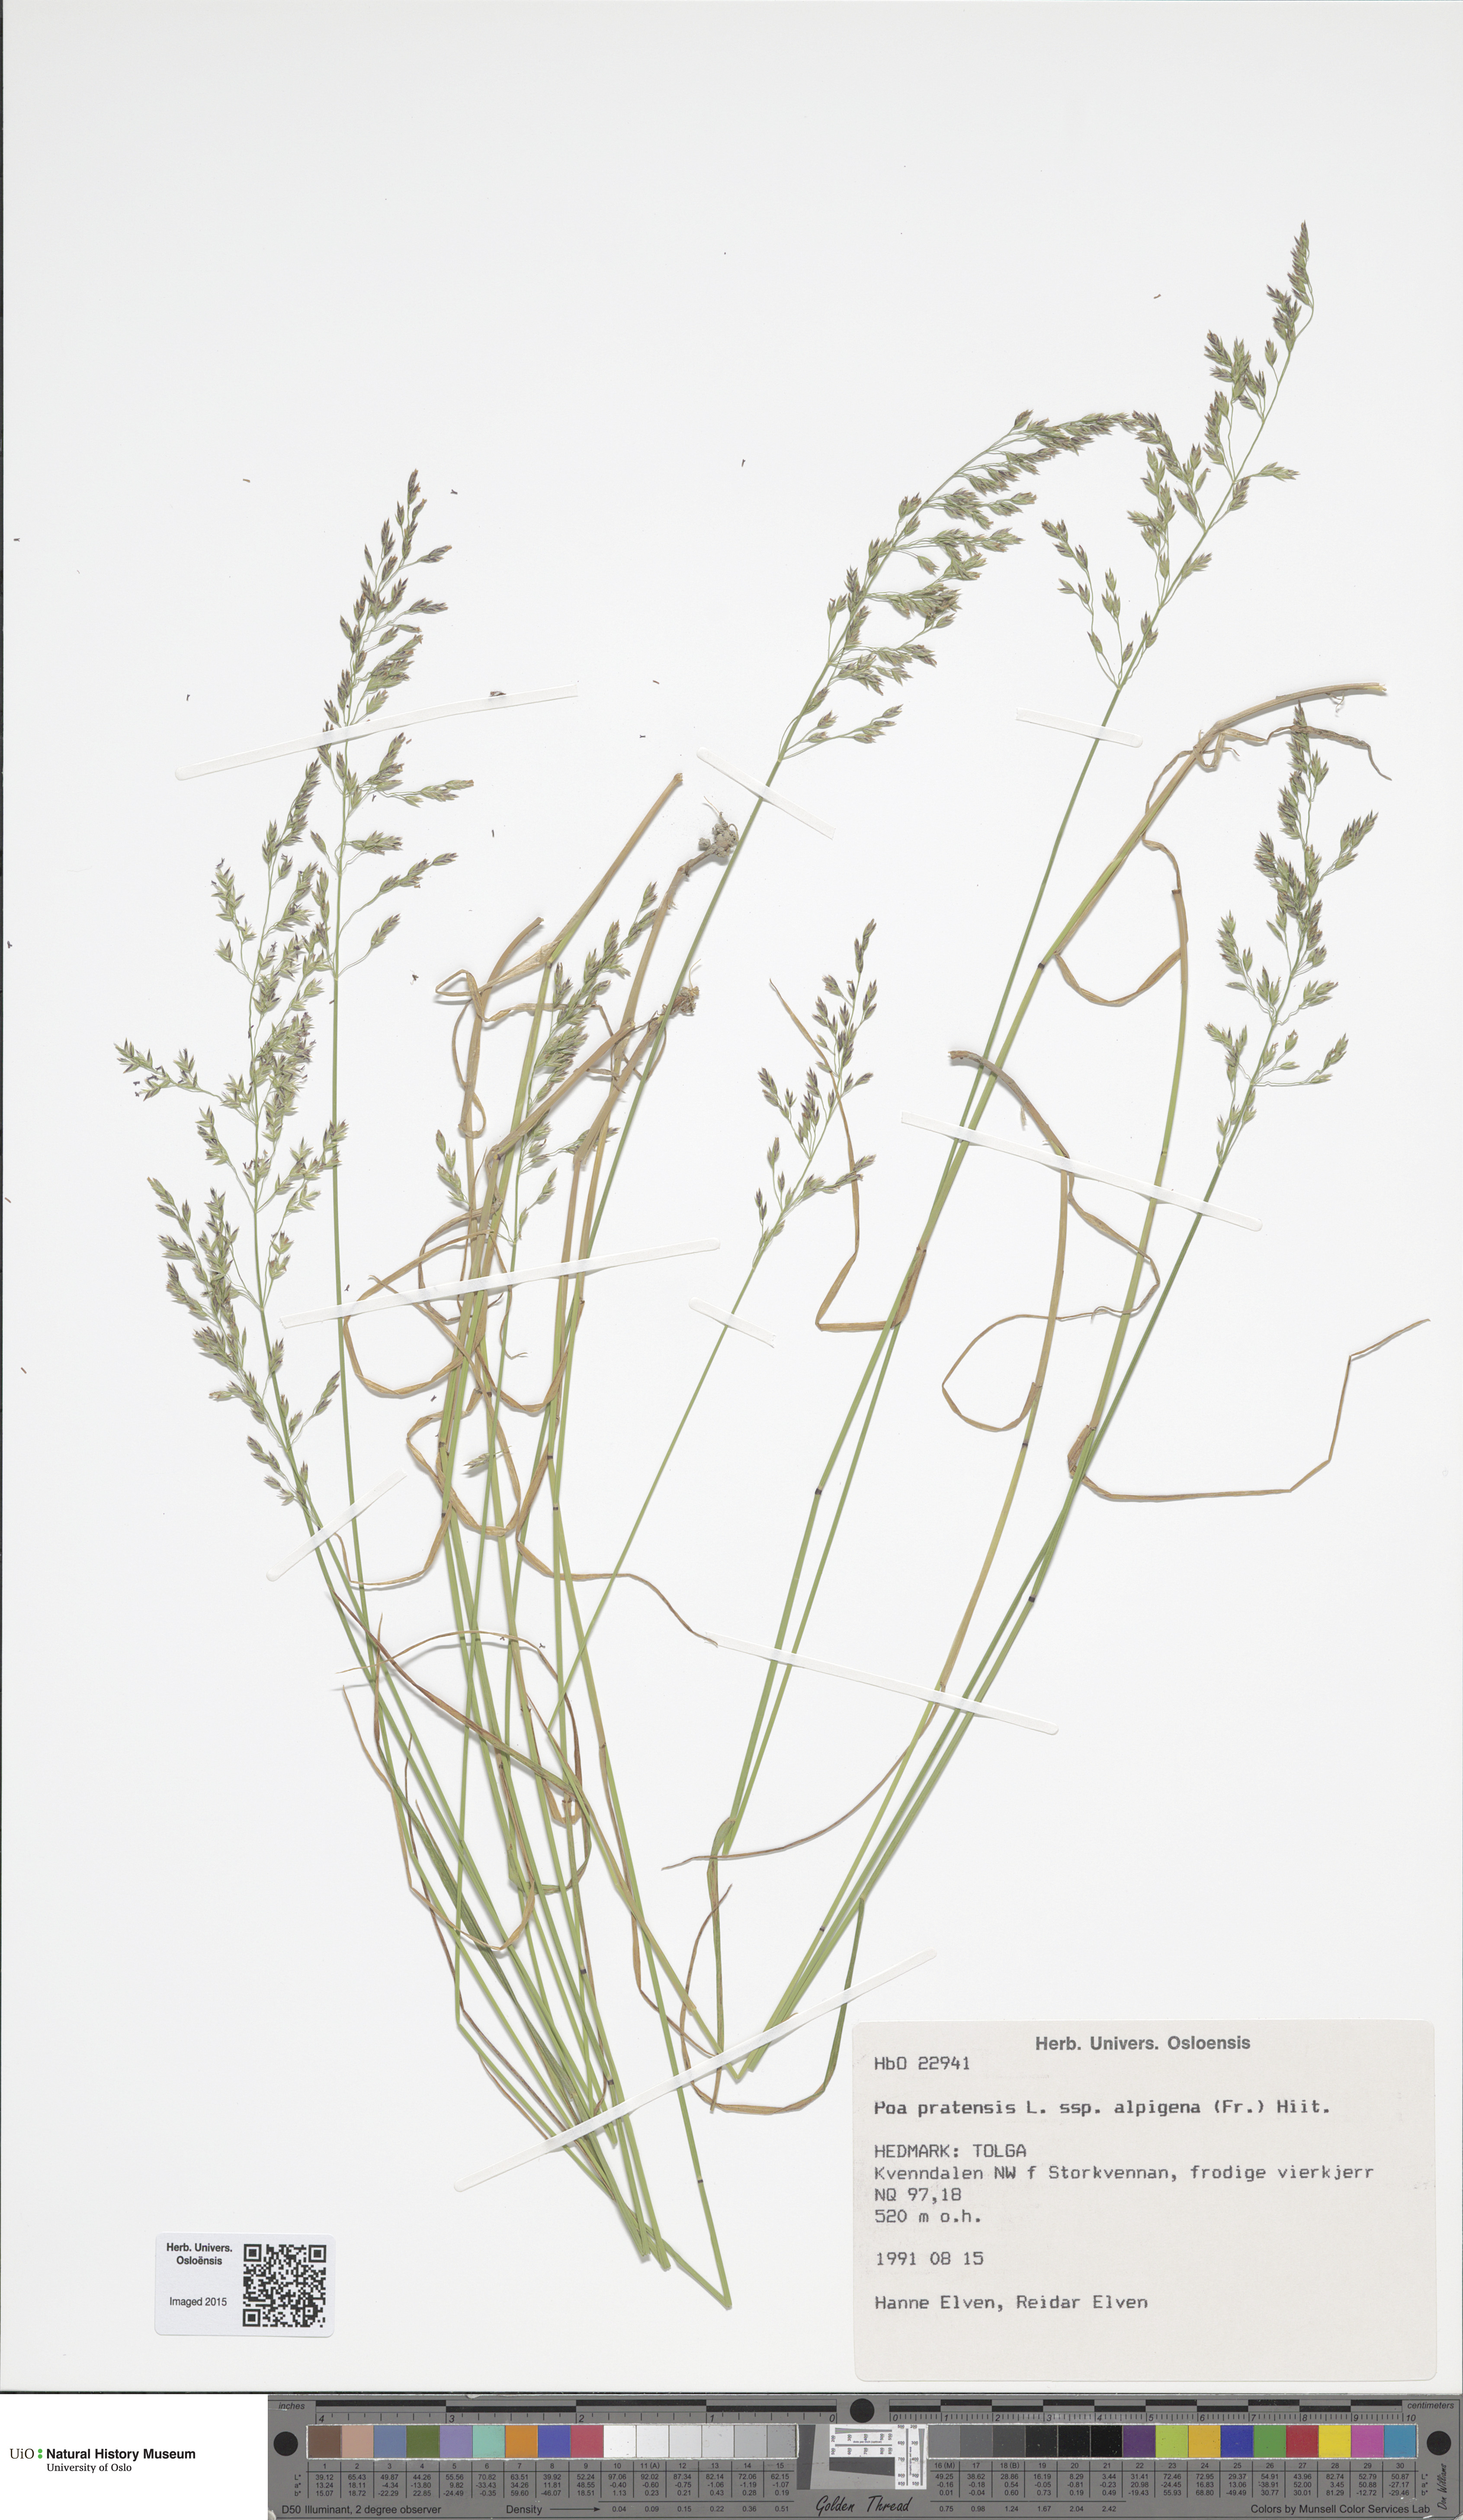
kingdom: Plantae
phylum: Tracheophyta
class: Liliopsida
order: Poales
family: Poaceae
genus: Poa
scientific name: Poa alpigena
